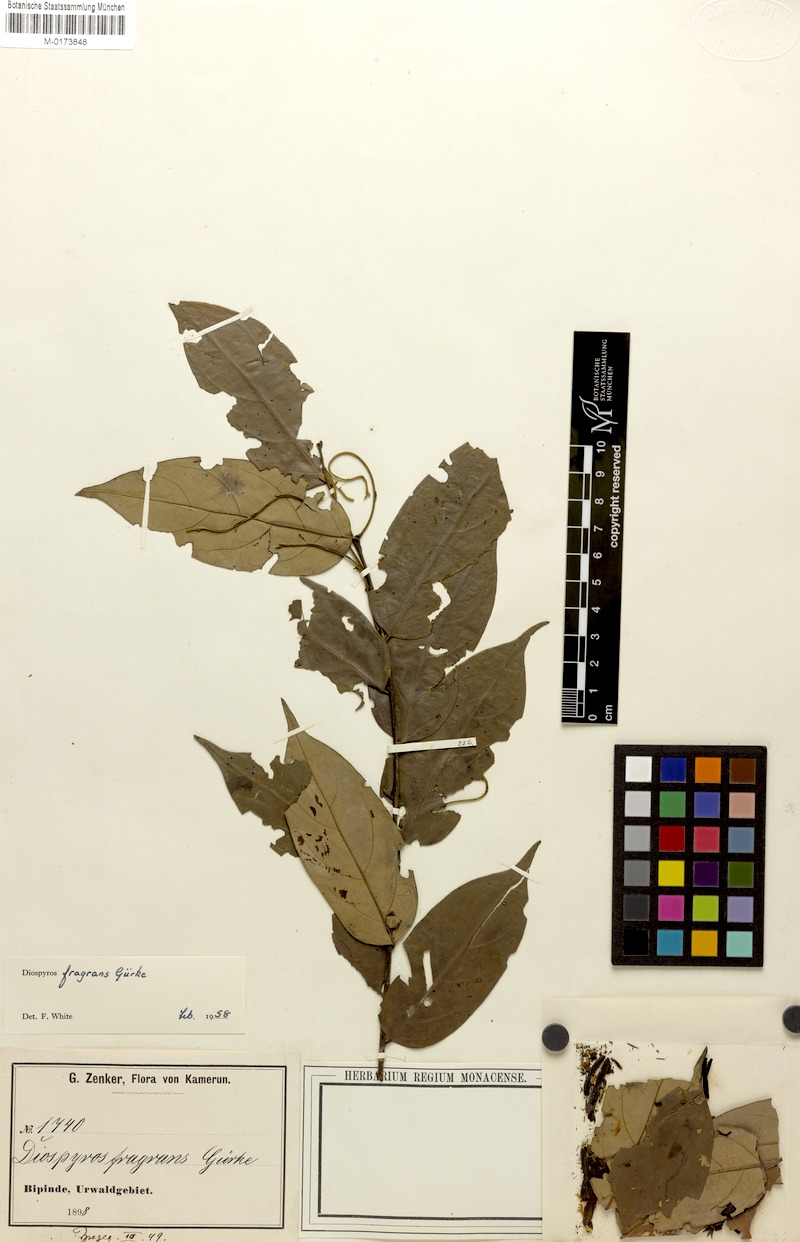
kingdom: Plantae
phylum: Tracheophyta
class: Magnoliopsida
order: Ericales
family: Ebenaceae
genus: Diospyros
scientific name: Diospyros fragrans
